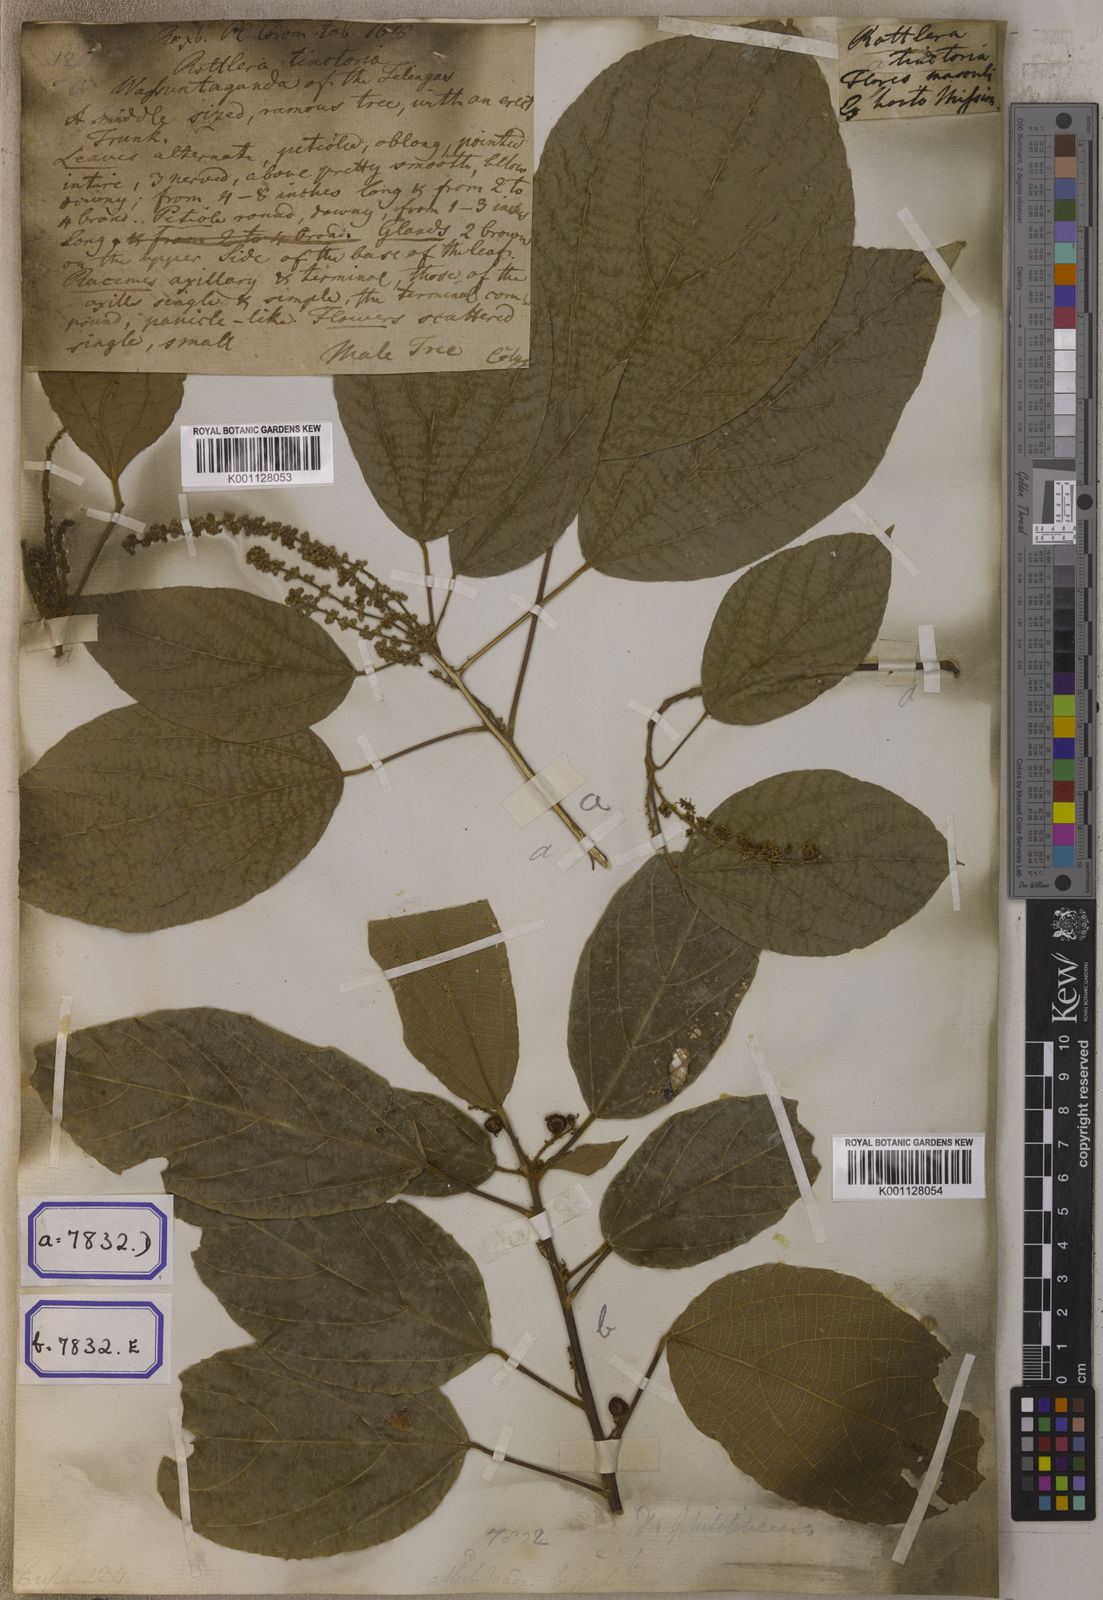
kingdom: Plantae
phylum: Tracheophyta
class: Magnoliopsida
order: Malpighiales
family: Euphorbiaceae
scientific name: Euphorbiaceae
